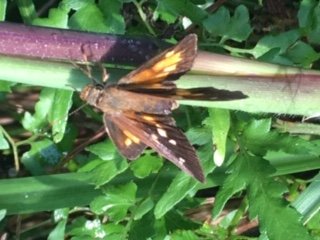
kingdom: Animalia
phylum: Arthropoda
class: Insecta
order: Lepidoptera
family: Hesperiidae
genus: Poanes
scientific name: Poanes viator
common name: Broad-winged Skipper
